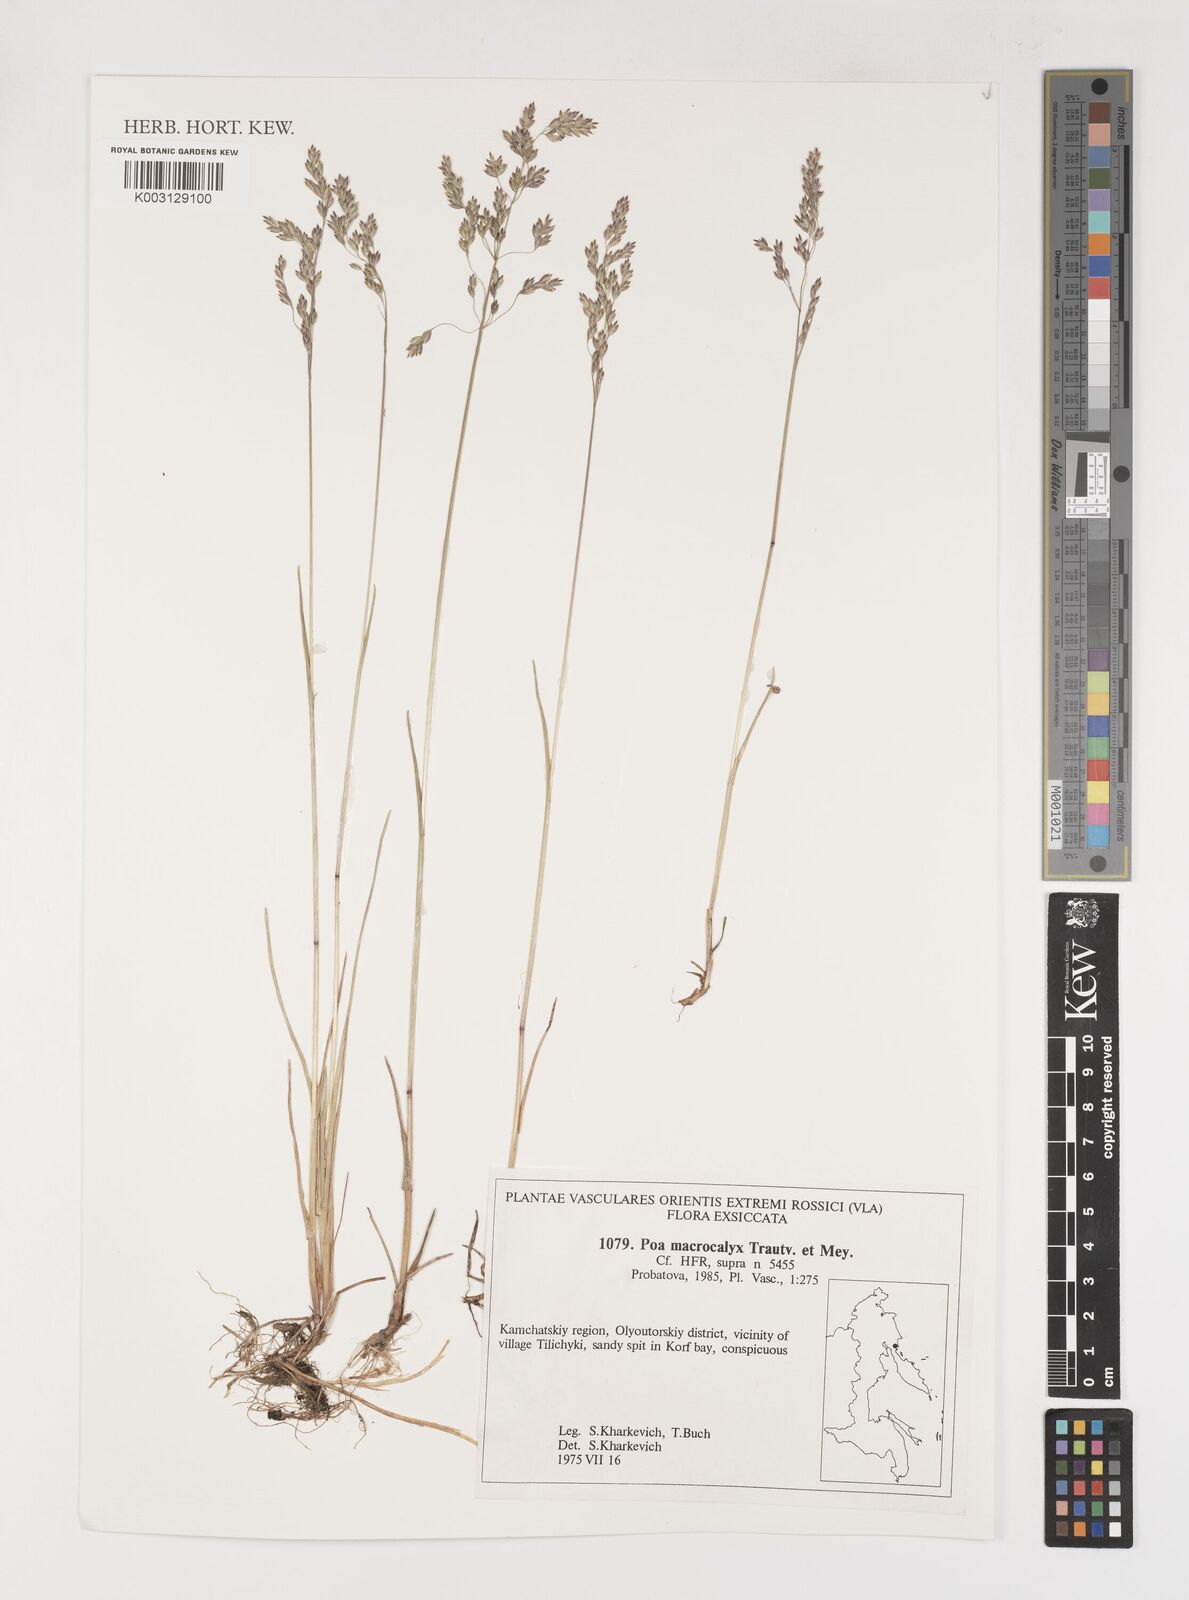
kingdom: Plantae
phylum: Tracheophyta
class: Liliopsida
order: Poales
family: Poaceae
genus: Poa
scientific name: Poa macrocalyx
